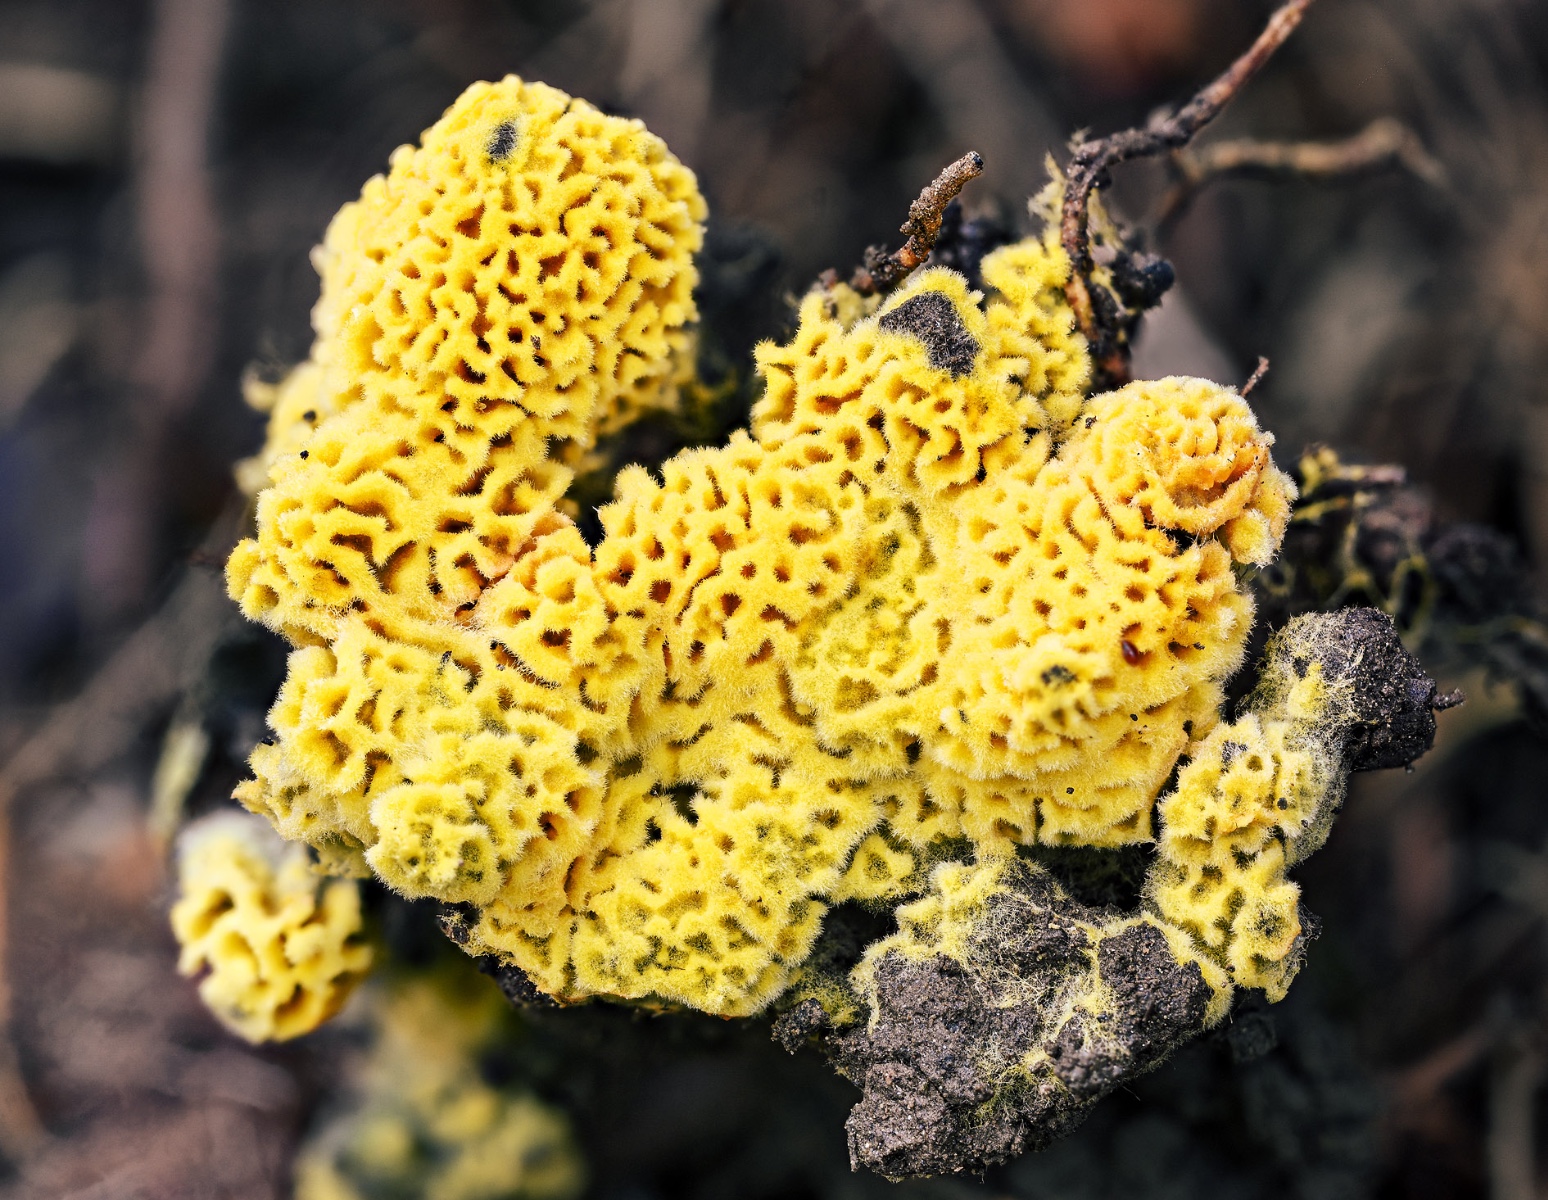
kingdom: Fungi
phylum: Basidiomycota
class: Agaricomycetes
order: Agaricales
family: Stephanosporaceae
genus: Lindtneria
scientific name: Lindtneria trachyspora
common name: labyrint-citrushinde
